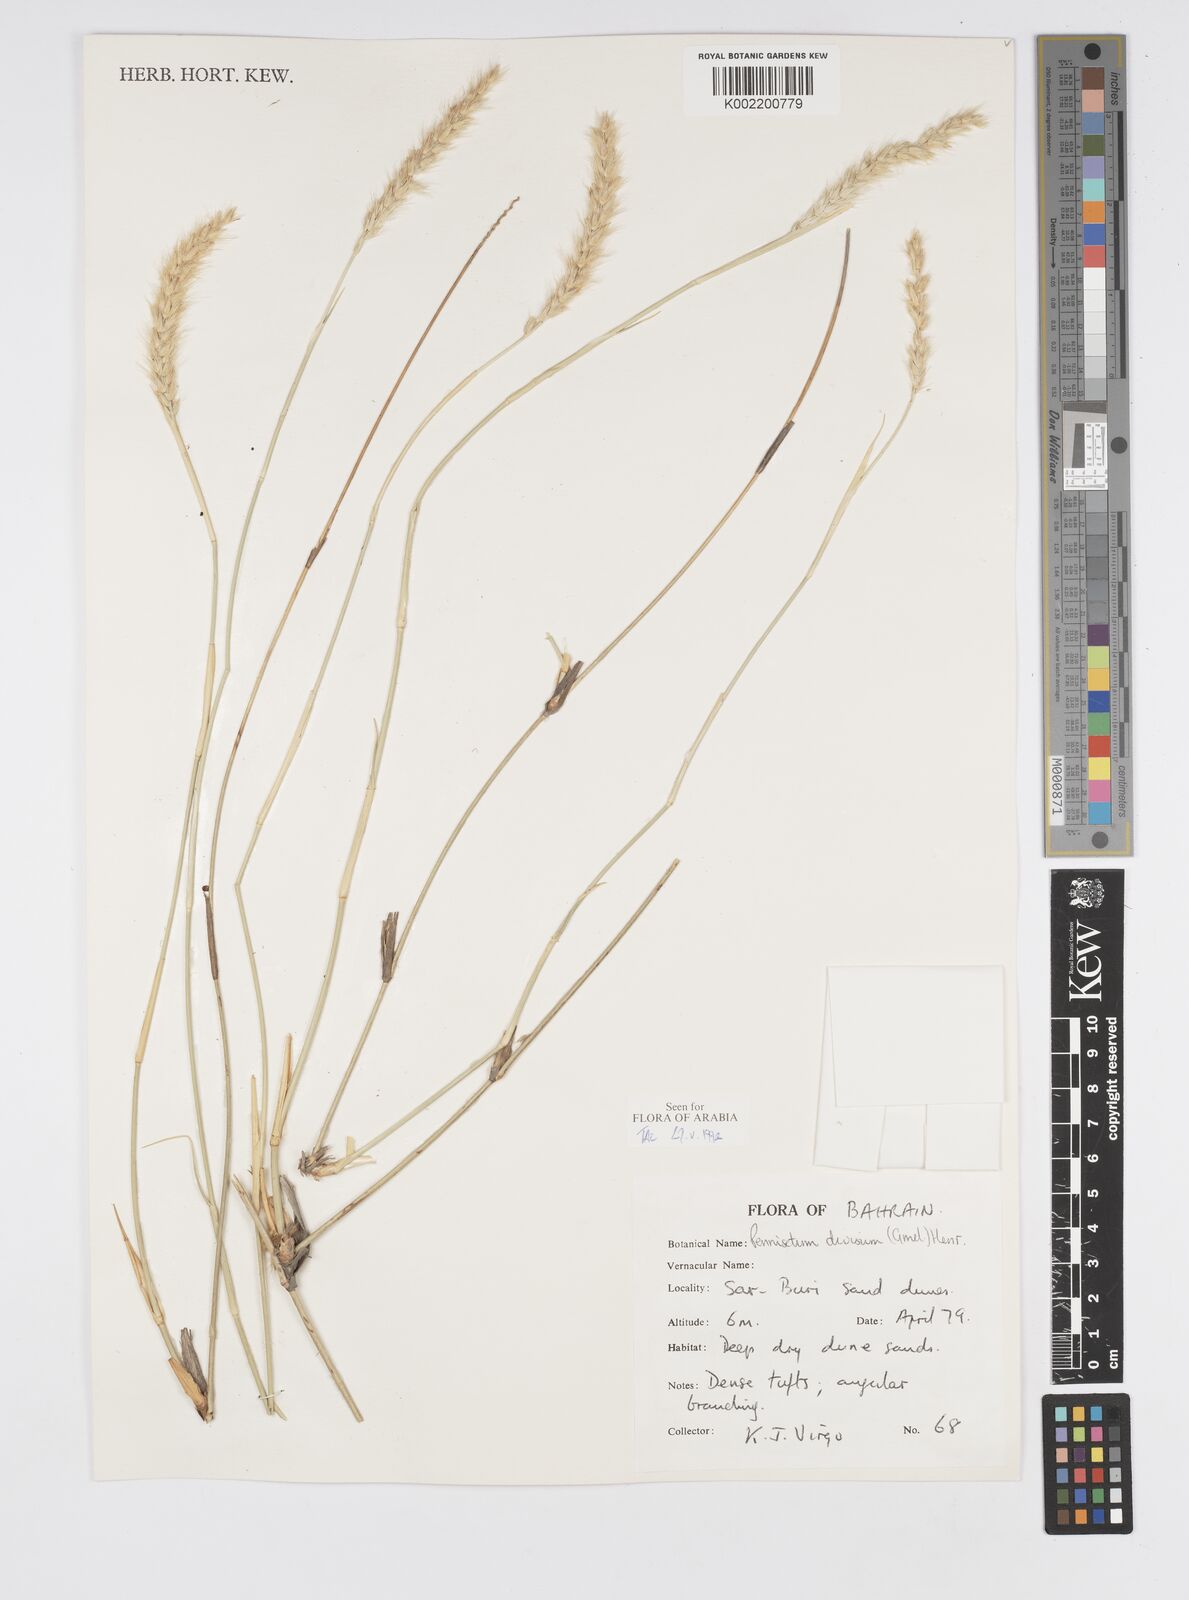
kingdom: Plantae
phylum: Tracheophyta
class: Liliopsida
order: Poales
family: Poaceae
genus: Cenchrus
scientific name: Cenchrus divisus
